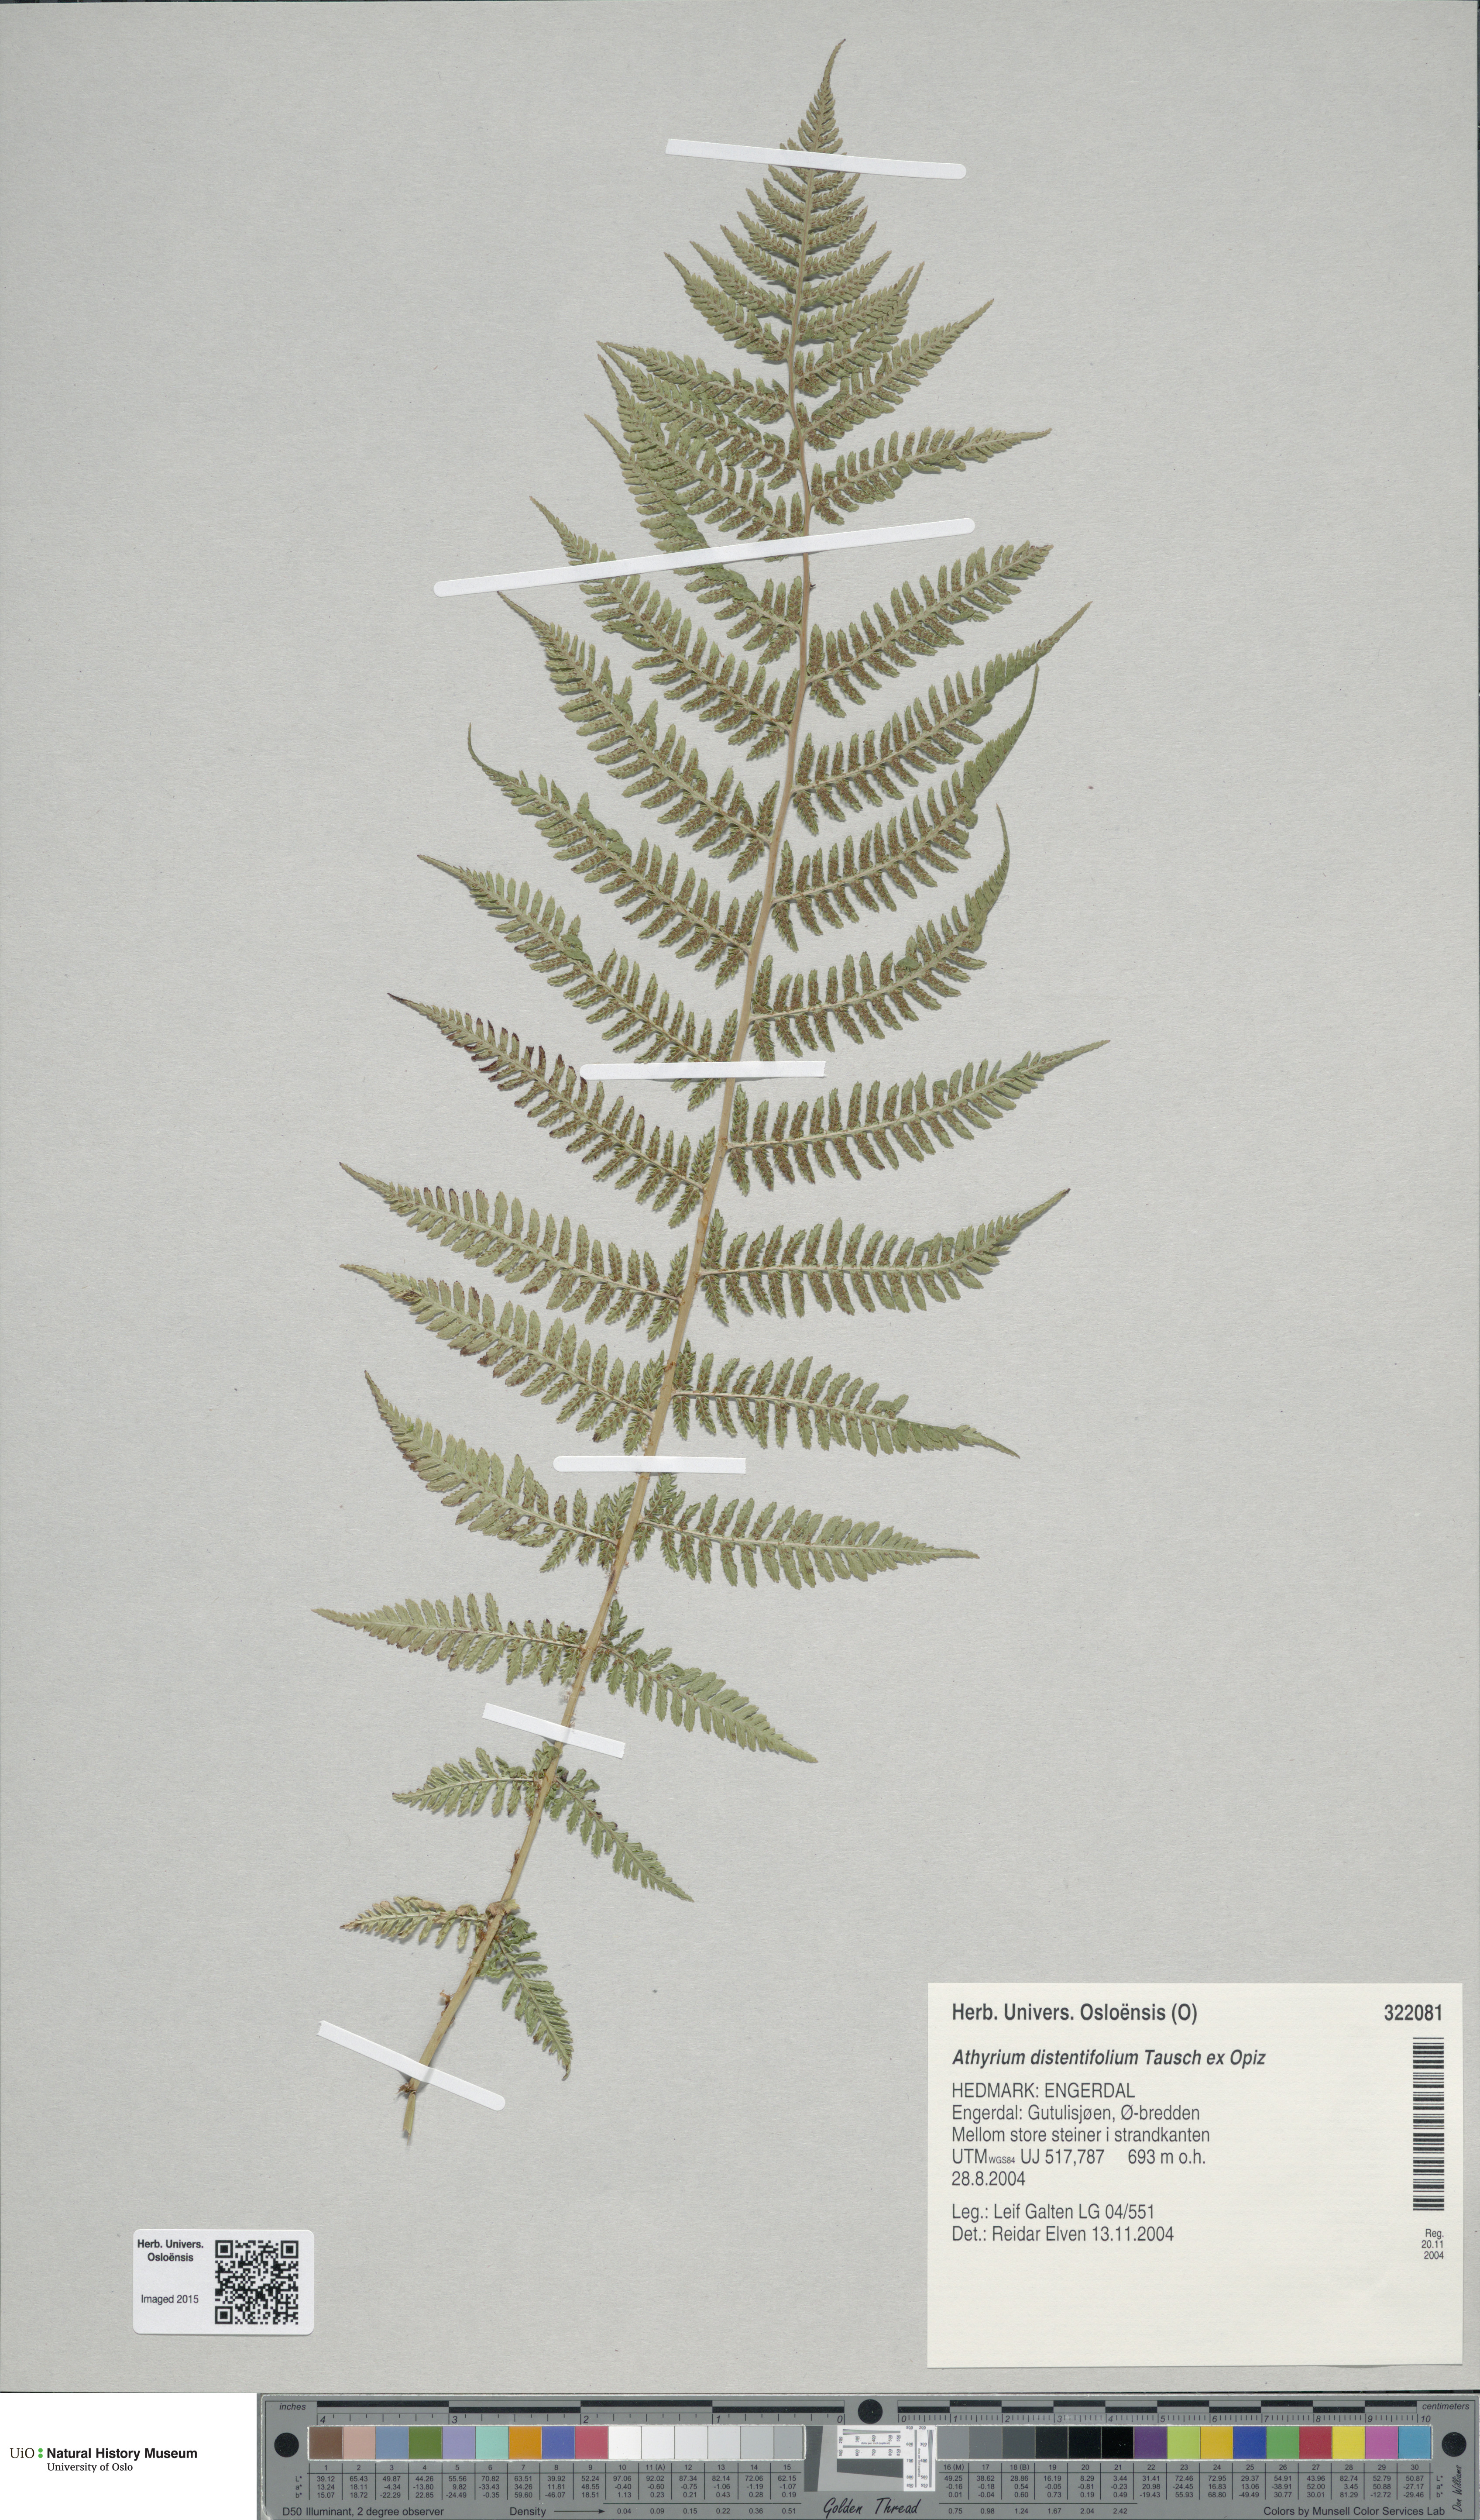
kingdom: Plantae
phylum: Tracheophyta
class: Polypodiopsida
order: Polypodiales
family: Athyriaceae
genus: Pseudathyrium
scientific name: Pseudathyrium alpestre
